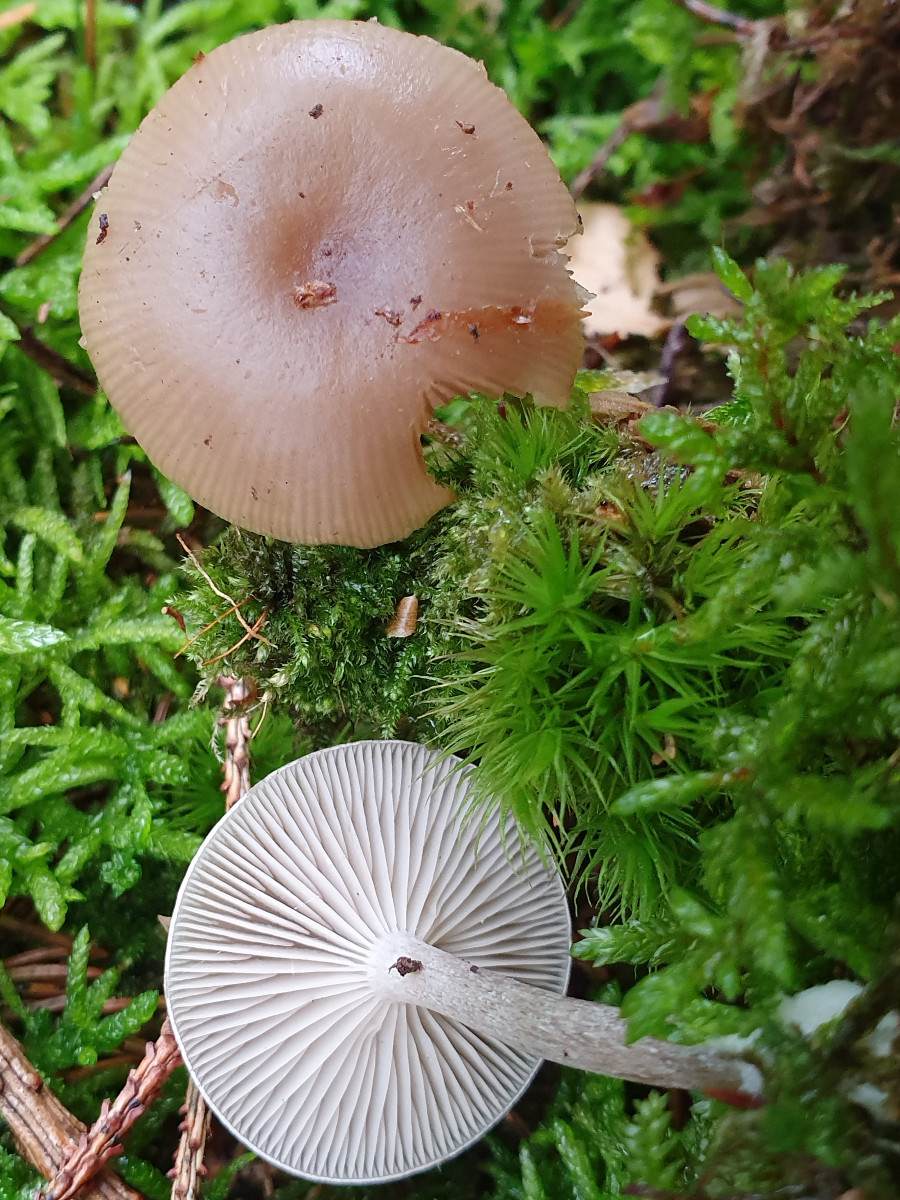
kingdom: Fungi
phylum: Basidiomycota
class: Agaricomycetes
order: Agaricales
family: Tricholomataceae
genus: Clitocybe
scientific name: Clitocybe vibecina
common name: randstribet tragthat
